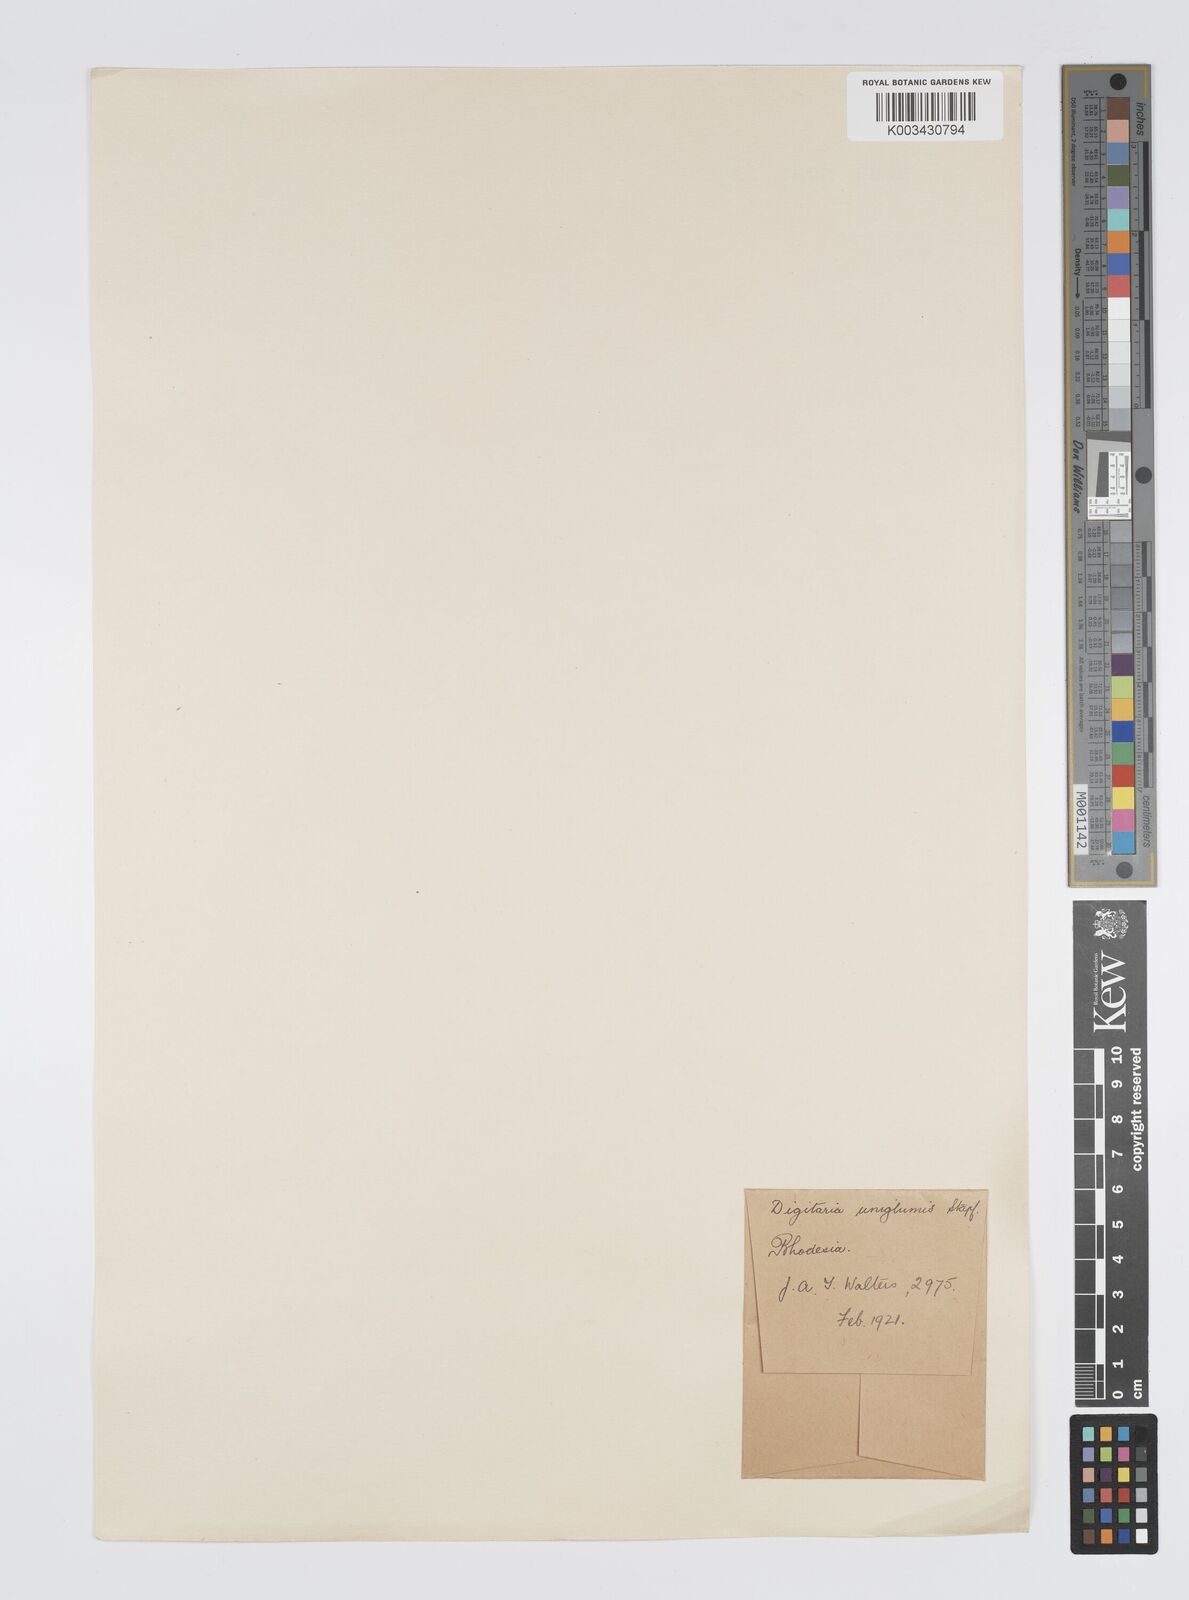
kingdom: Plantae
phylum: Tracheophyta
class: Liliopsida
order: Poales
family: Poaceae
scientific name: Poaceae
